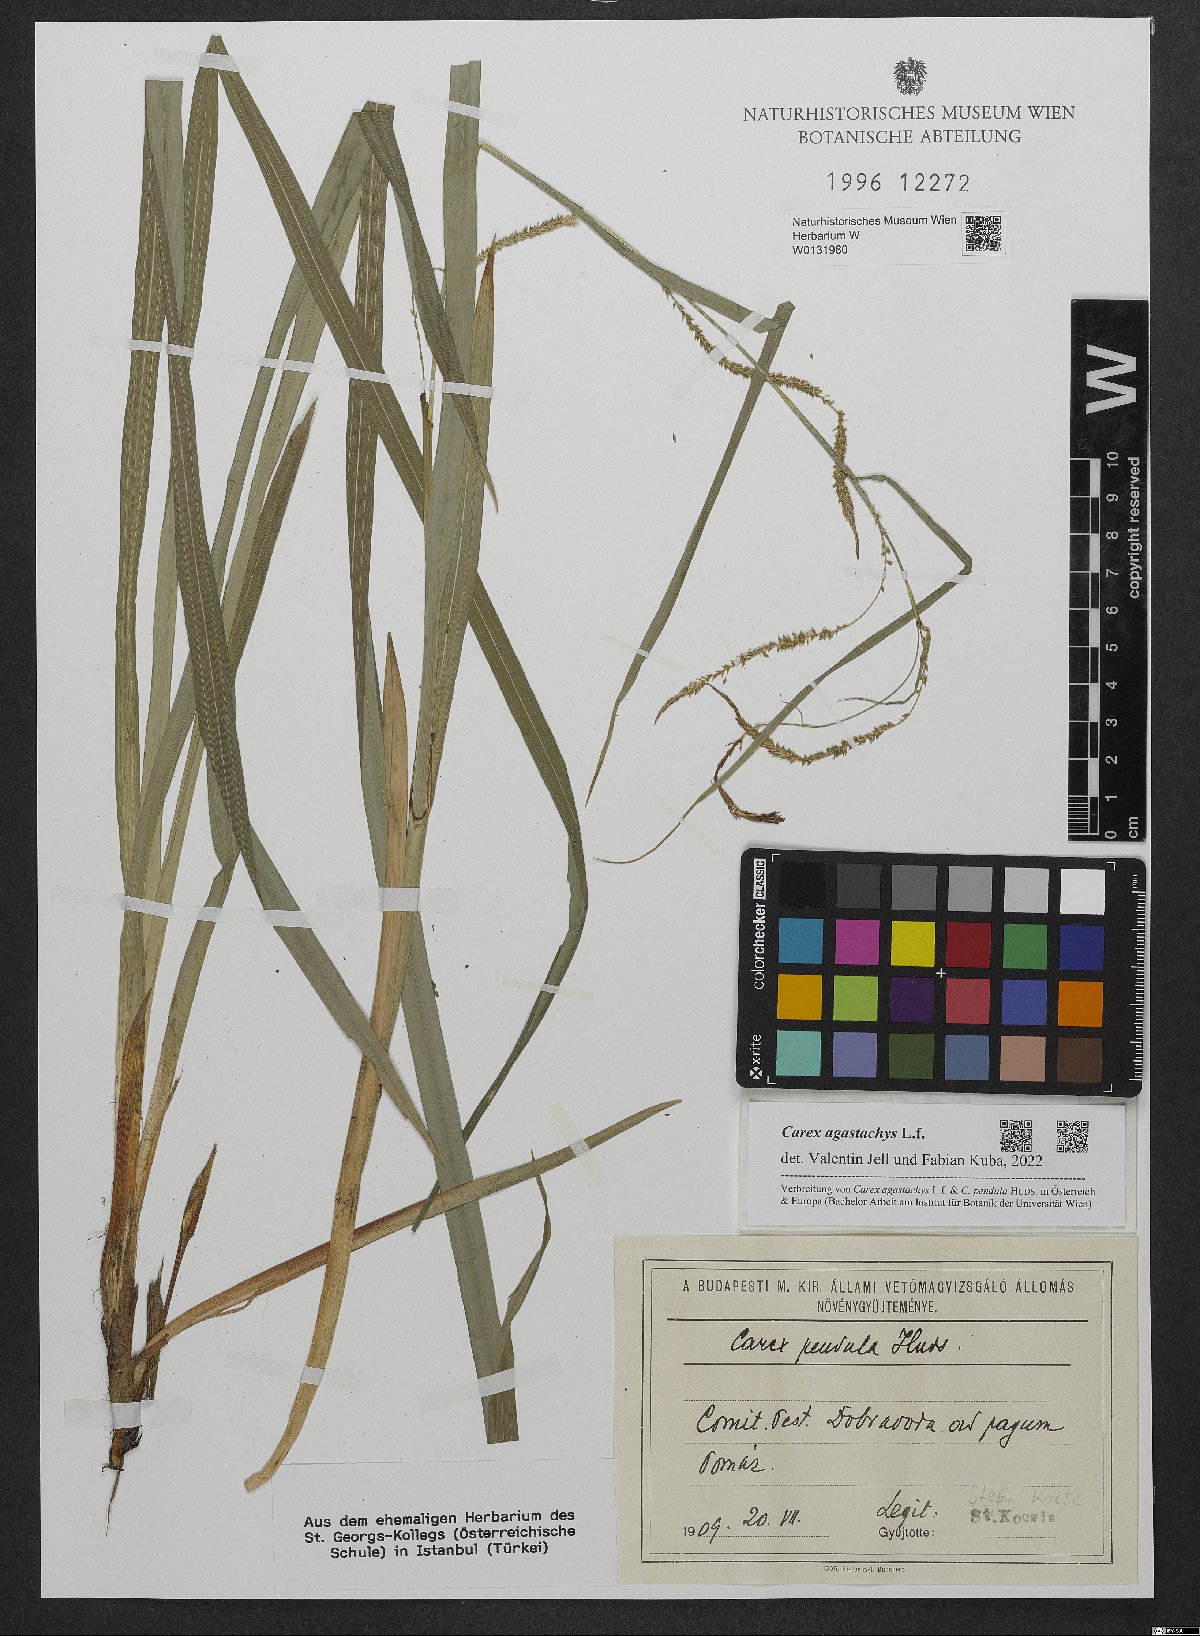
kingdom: Plantae
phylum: Tracheophyta
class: Liliopsida
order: Poales
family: Cyperaceae
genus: Carex
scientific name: Carex agastachys
